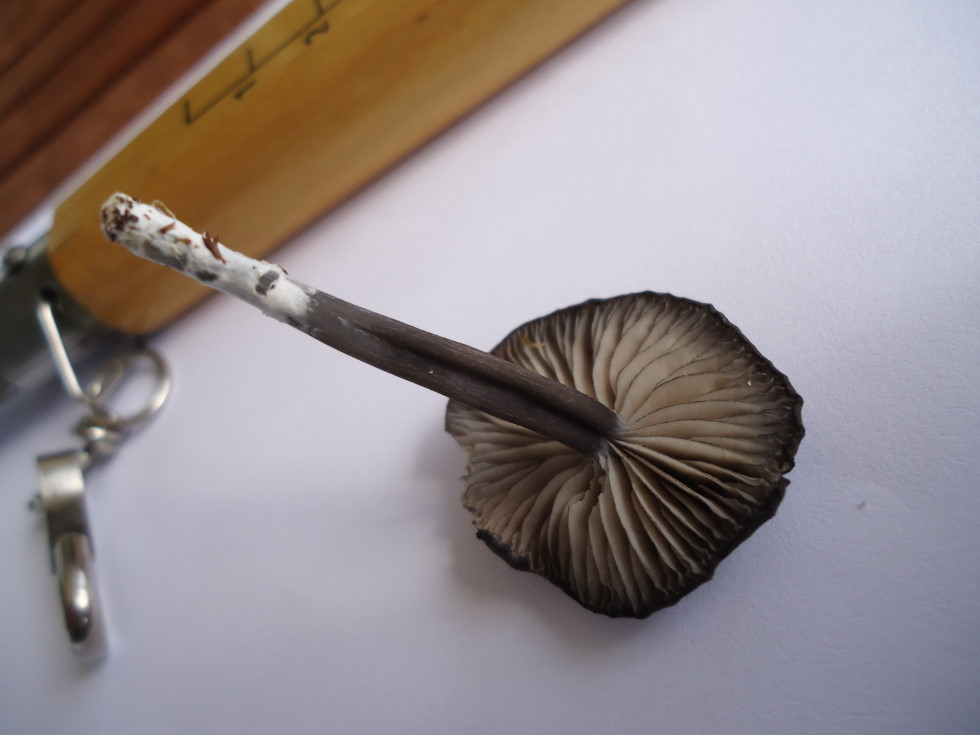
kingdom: Fungi
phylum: Basidiomycota
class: Agaricomycetes
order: Agaricales
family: Entolomataceae
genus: Entoloma
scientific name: Entoloma
